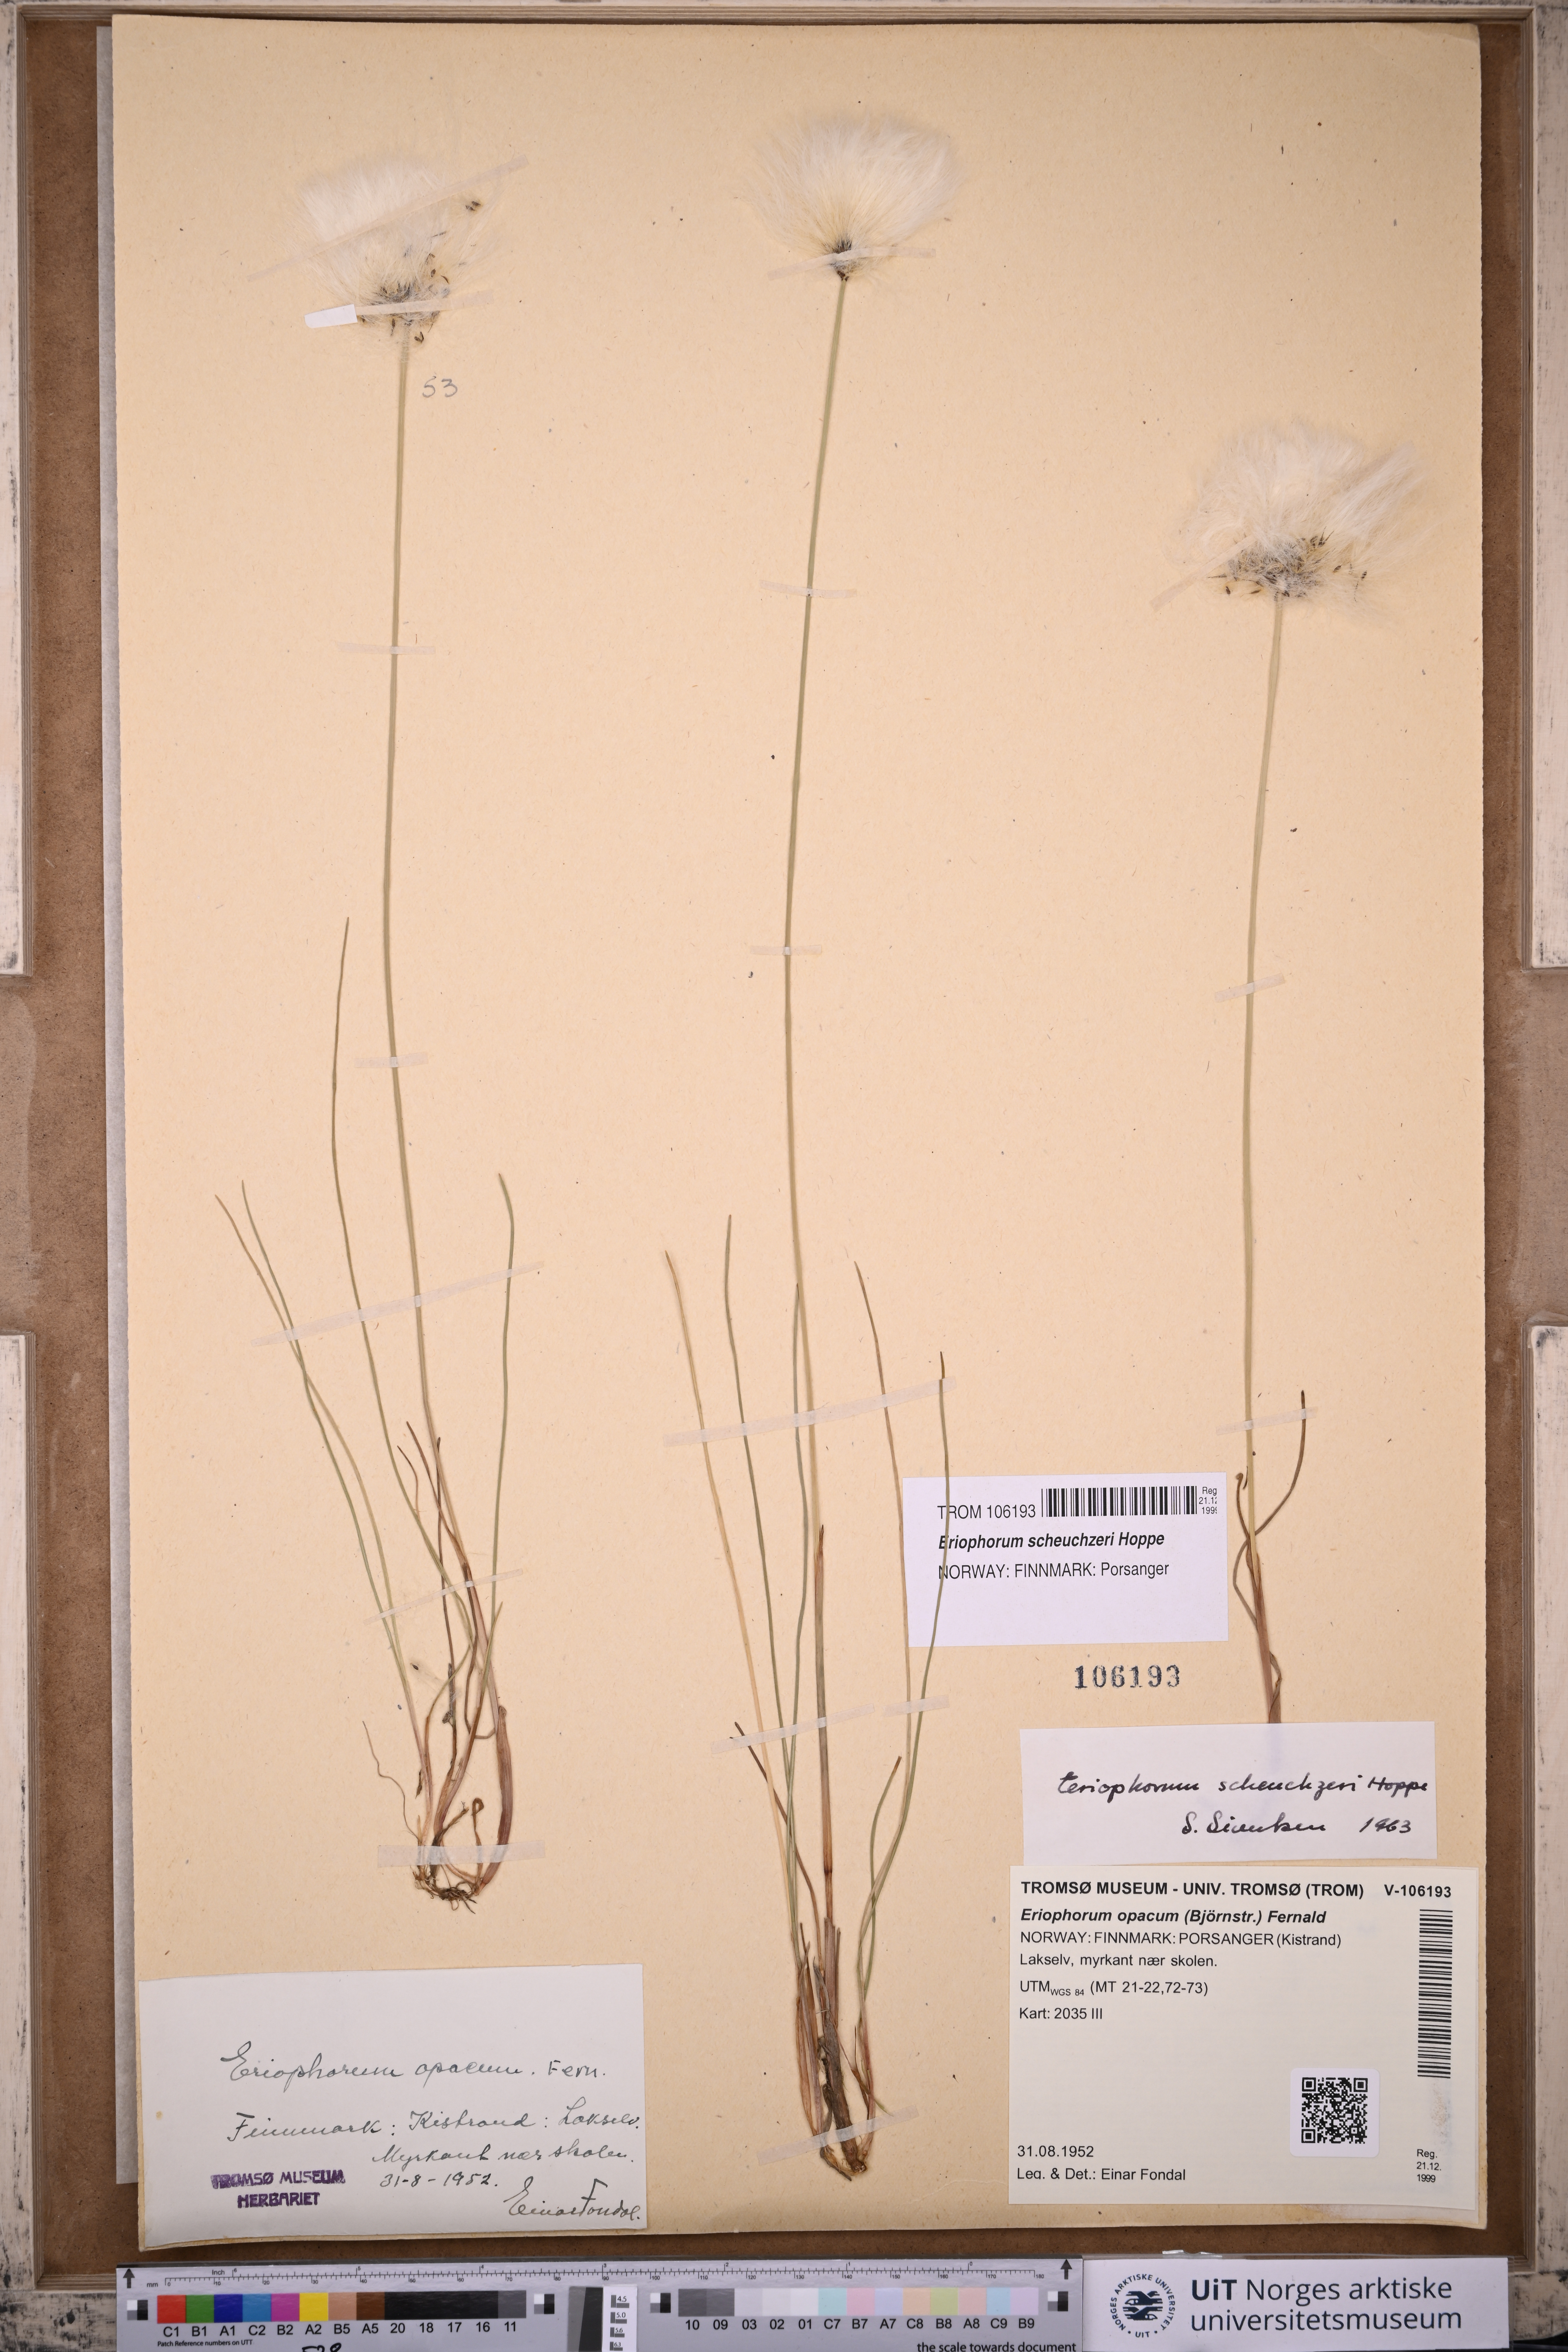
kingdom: Plantae
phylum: Tracheophyta
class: Liliopsida
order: Poales
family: Cyperaceae
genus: Eriophorum
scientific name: Eriophorum scheuchzeri
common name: Scheuchzer's cottongrass
